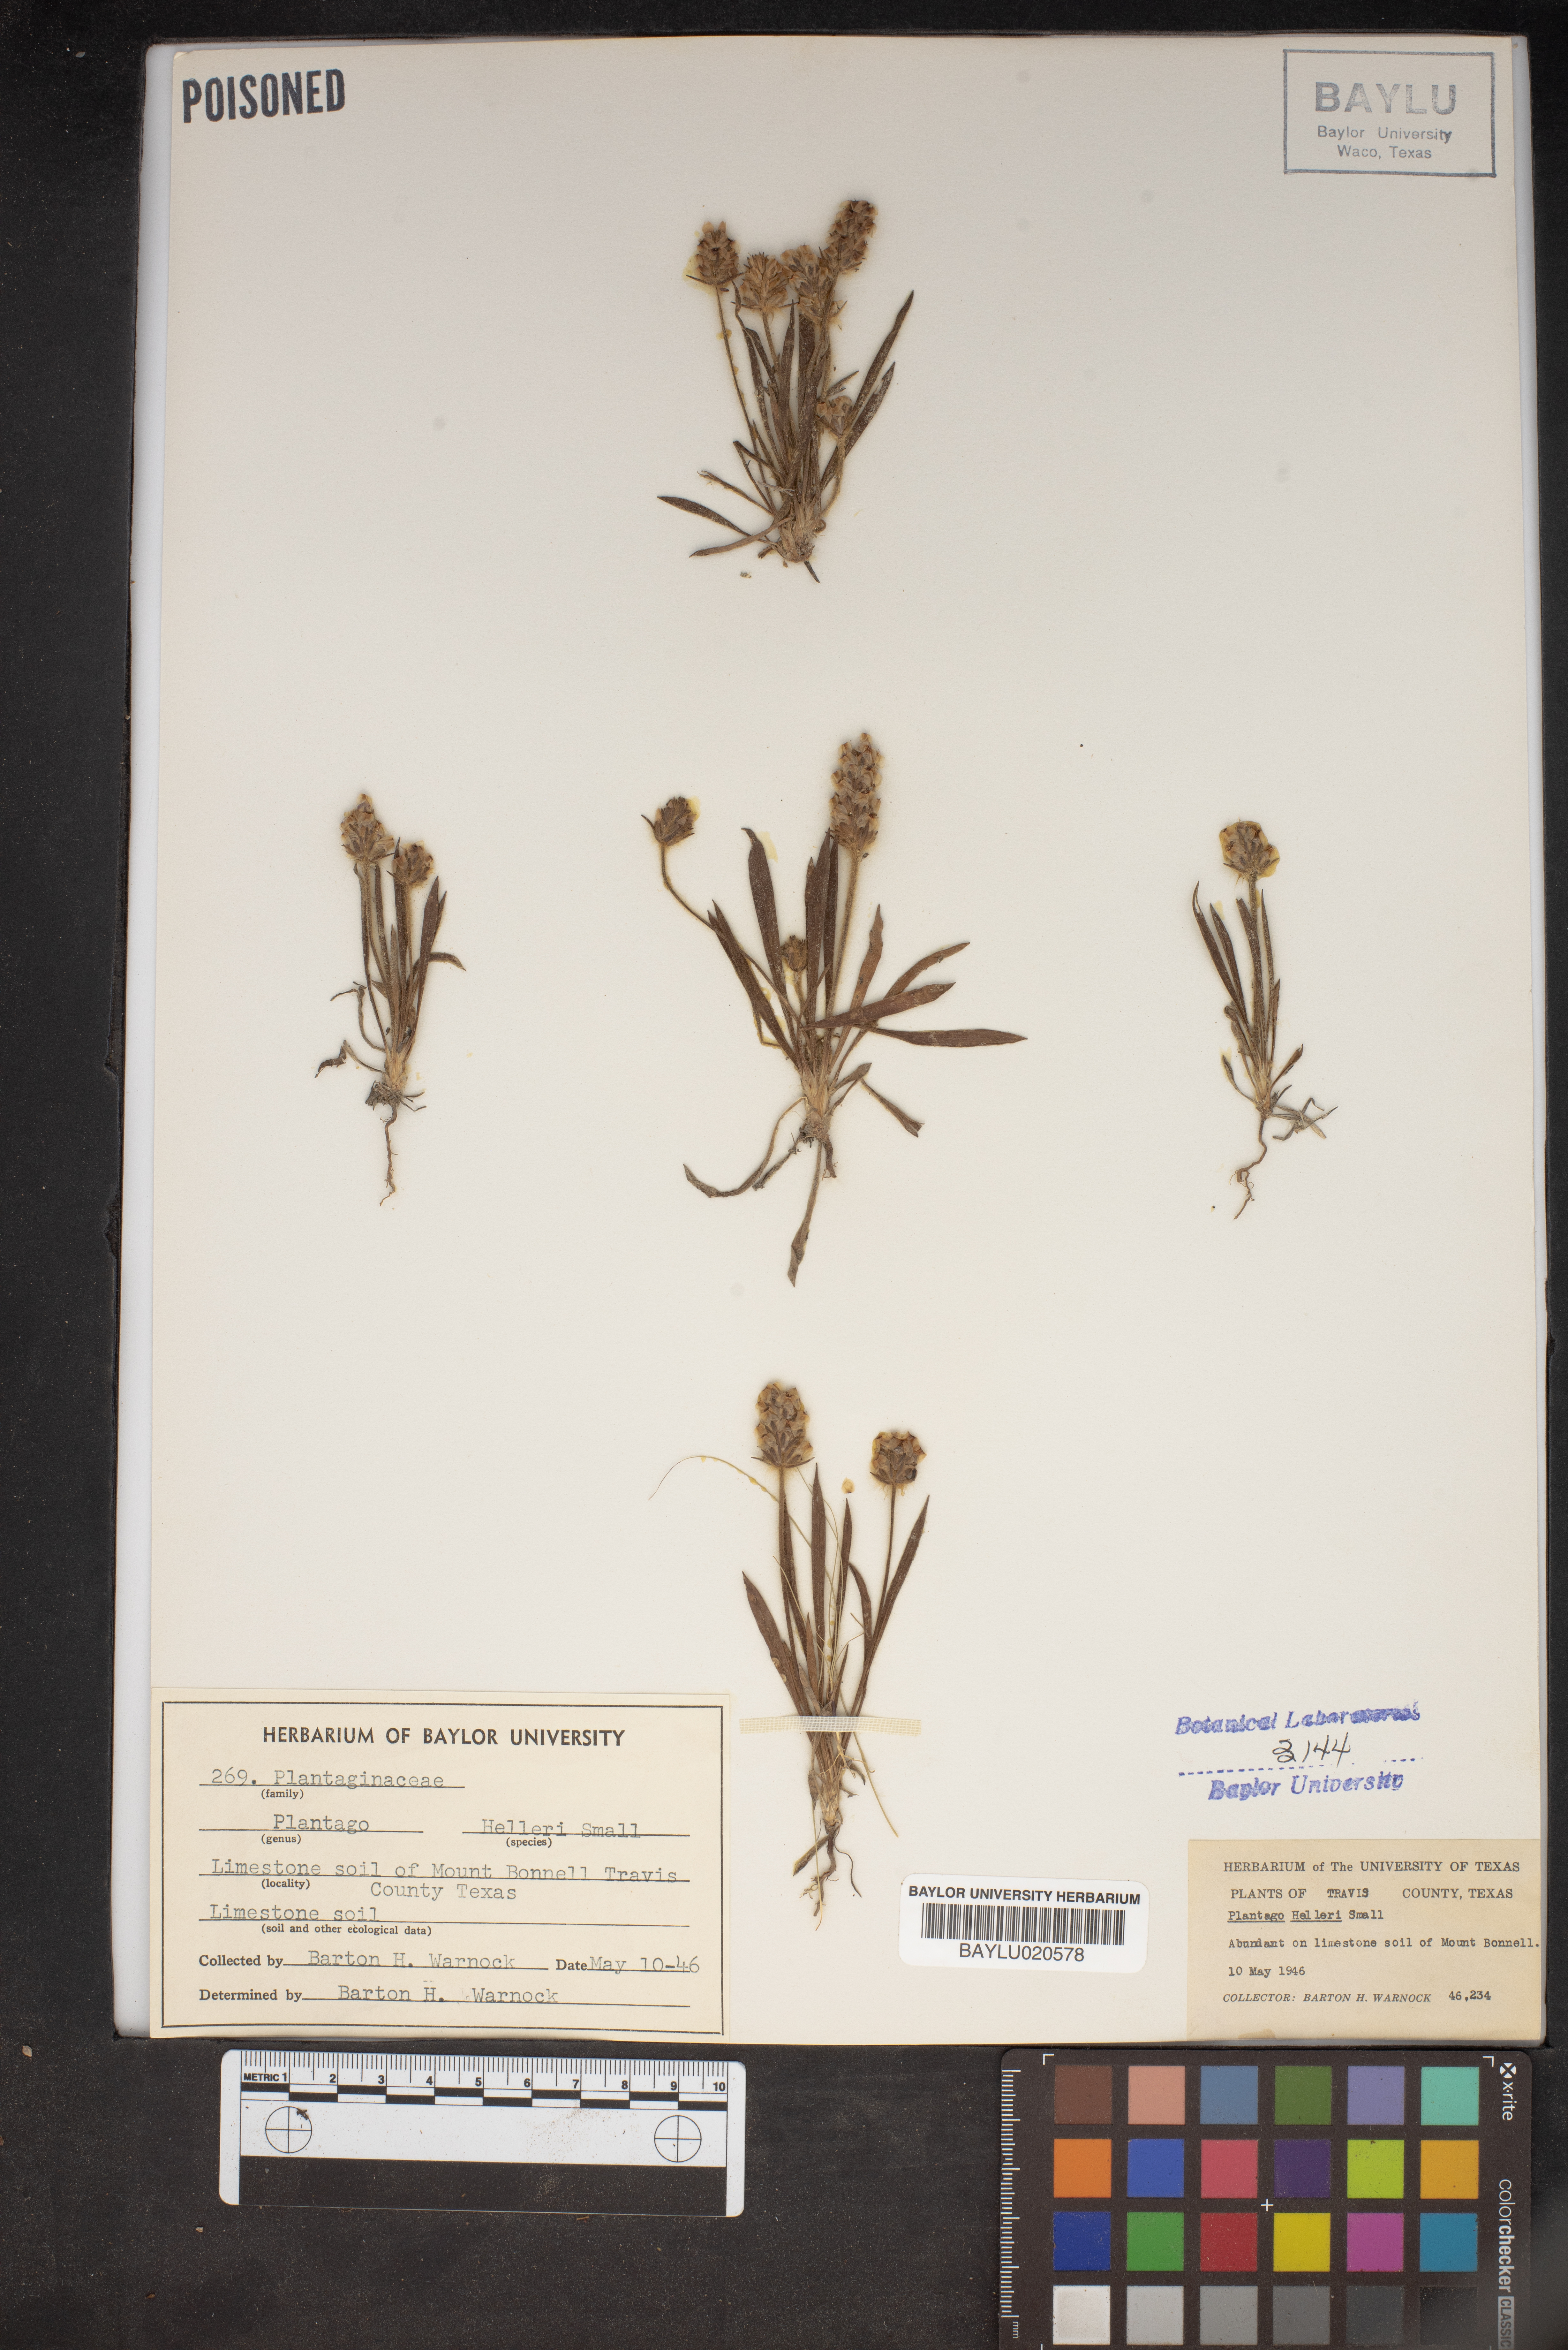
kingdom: Plantae
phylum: Tracheophyta
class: Magnoliopsida
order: Lamiales
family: Plantaginaceae
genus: Plantago
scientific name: Plantago helleri
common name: Heller's plantain
